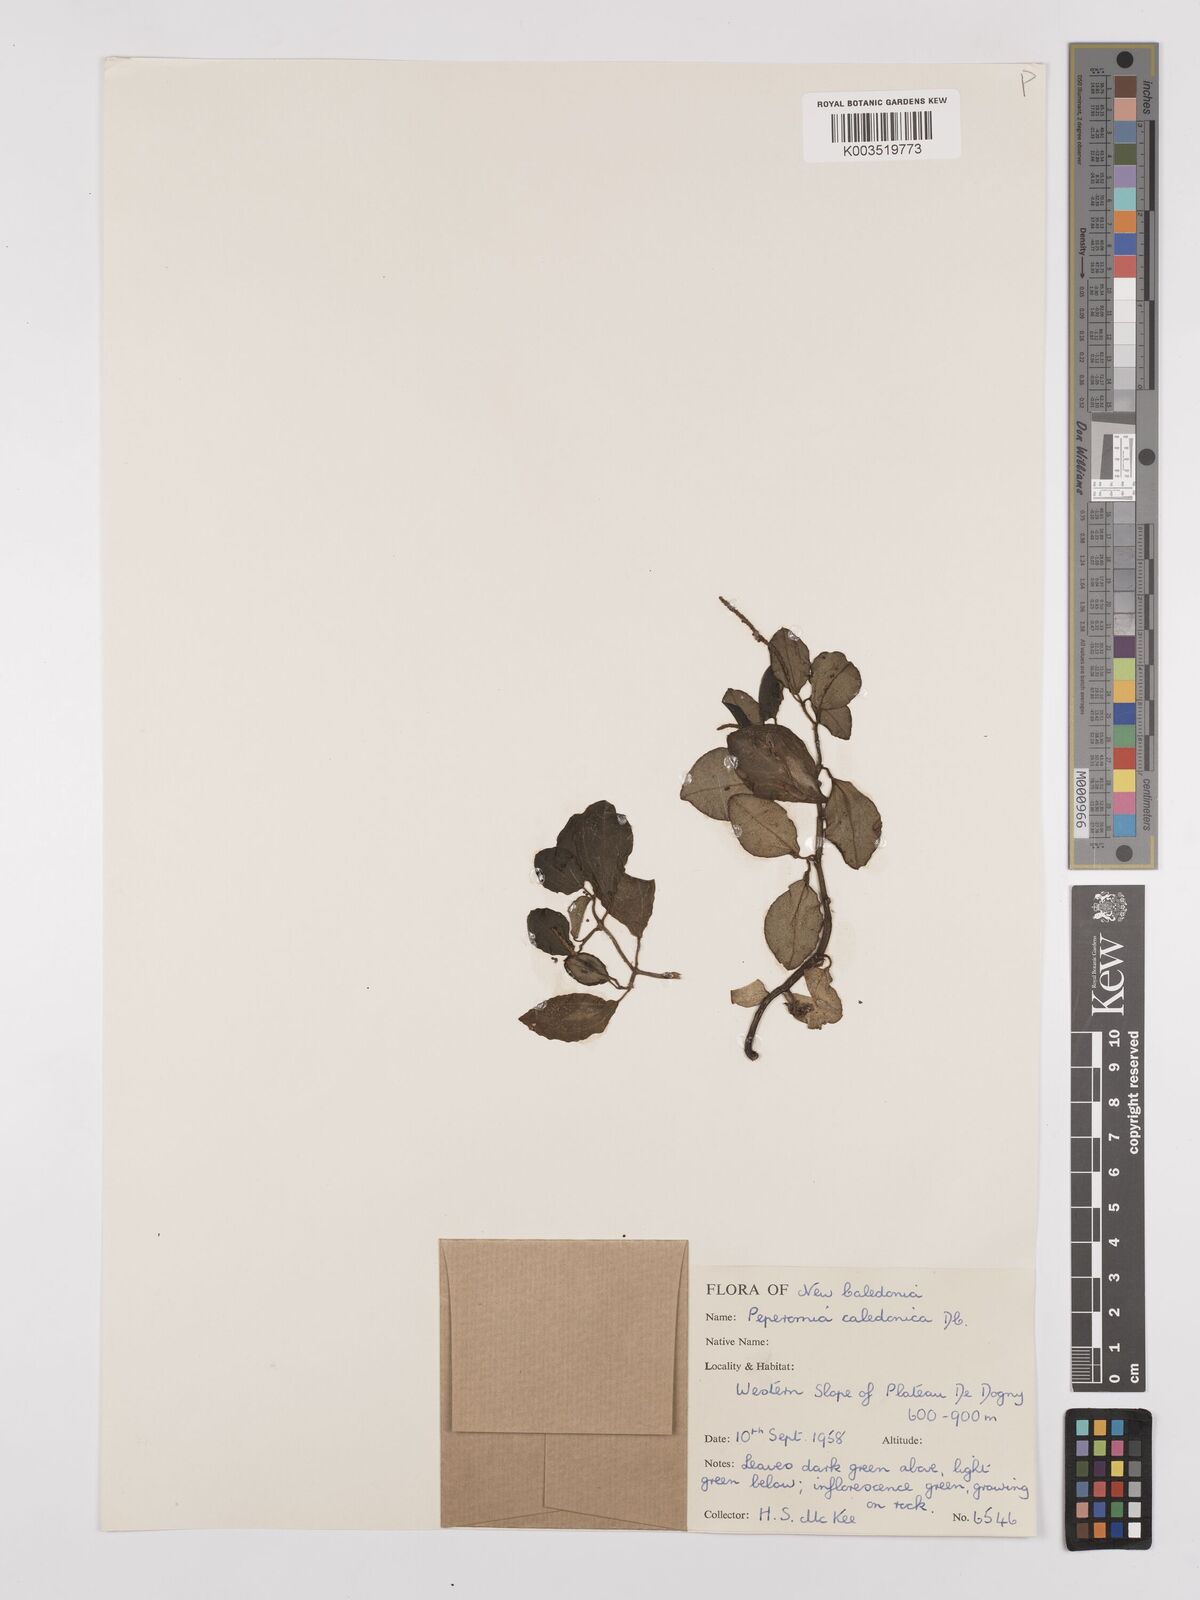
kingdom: Plantae
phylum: Tracheophyta
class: Magnoliopsida
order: Piperales
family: Piperaceae
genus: Peperomia
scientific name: Peperomia urvilleana
